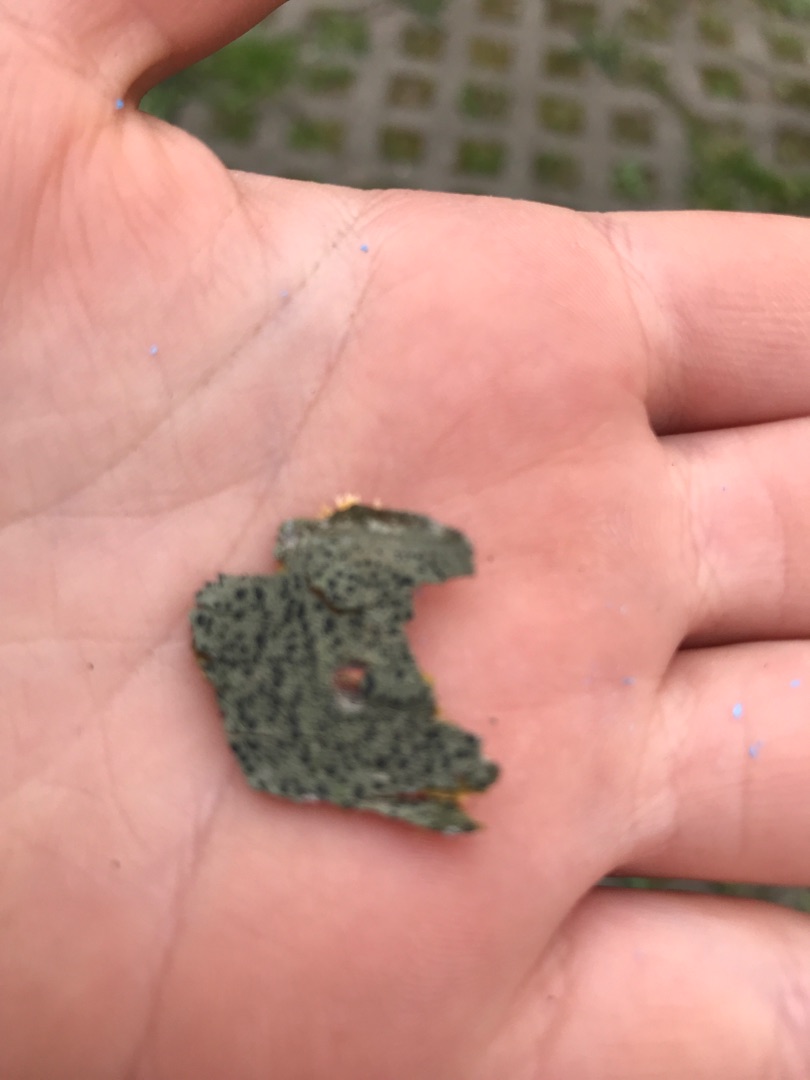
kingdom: Fungi
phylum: Ascomycota
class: Lecanoromycetes
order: Lecanorales
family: Lecanoraceae
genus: Lecidella
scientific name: Lecidella elaeochroma
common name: Grågrøn skivelav
